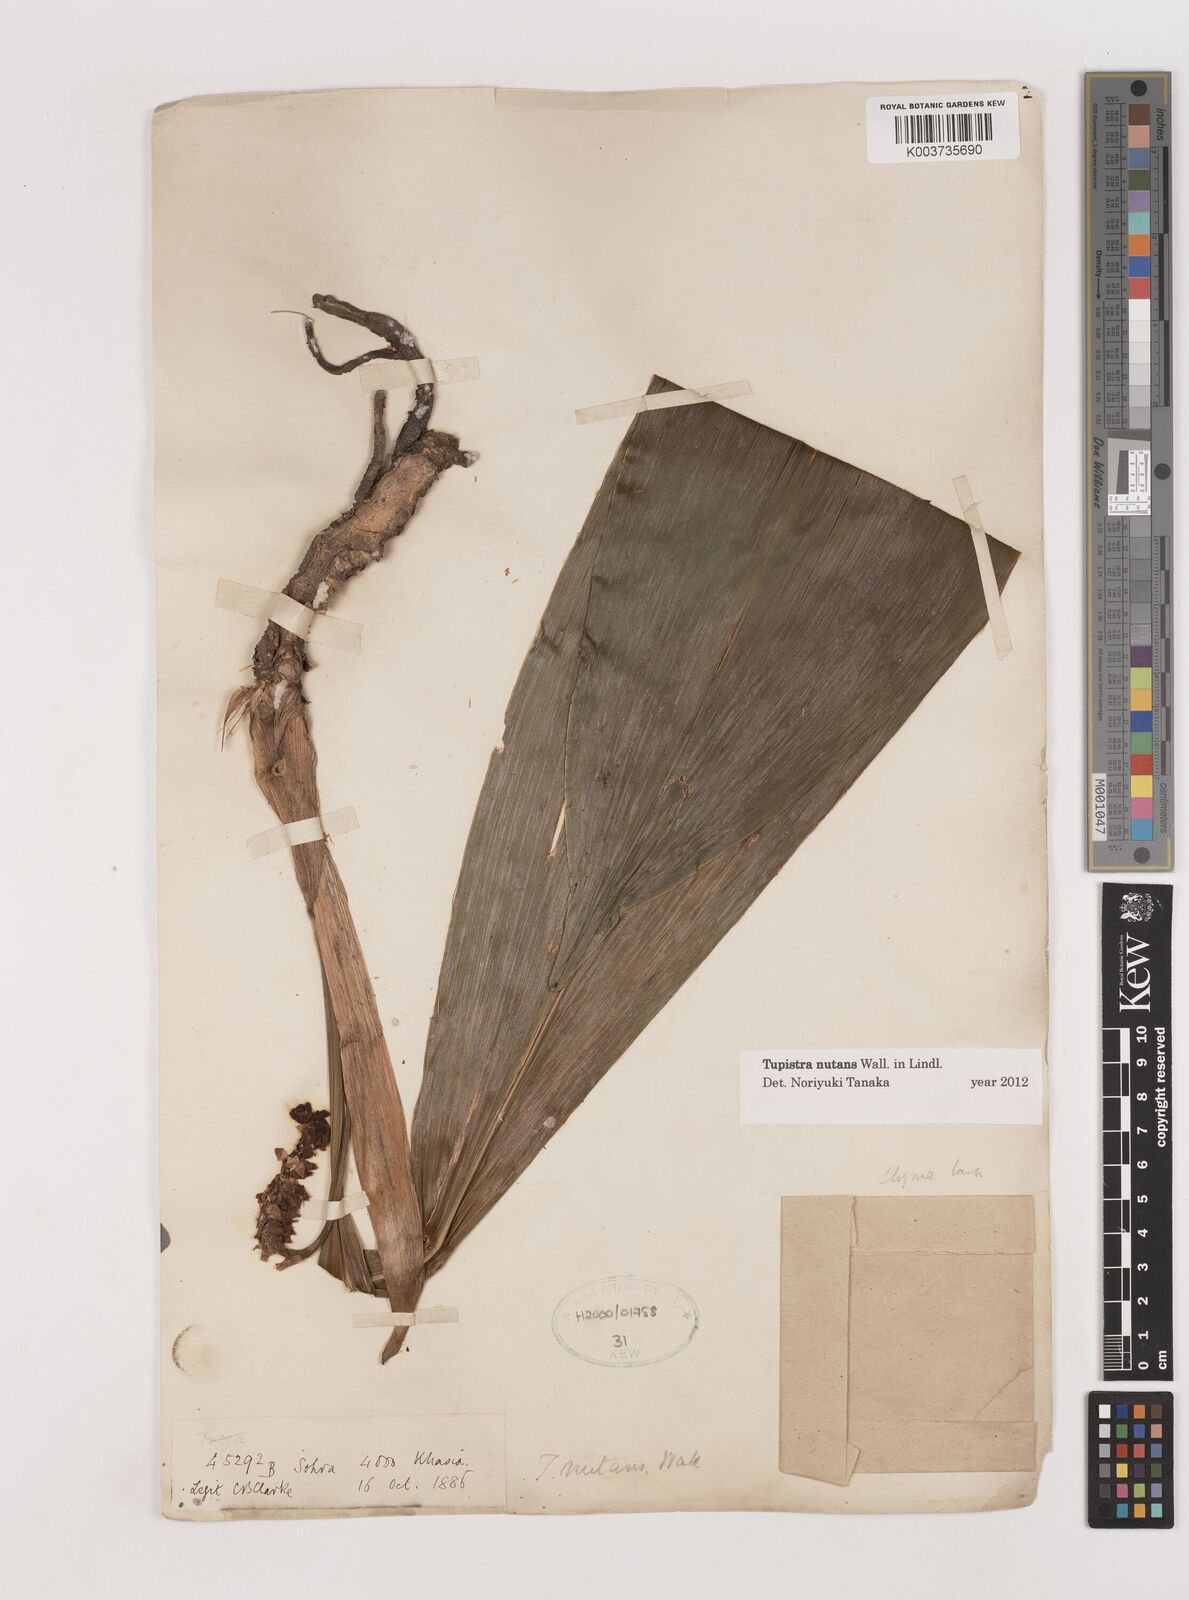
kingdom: Plantae
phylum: Tracheophyta
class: Liliopsida
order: Asparagales
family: Asparagaceae
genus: Tupistra
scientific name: Tupistra nutans
